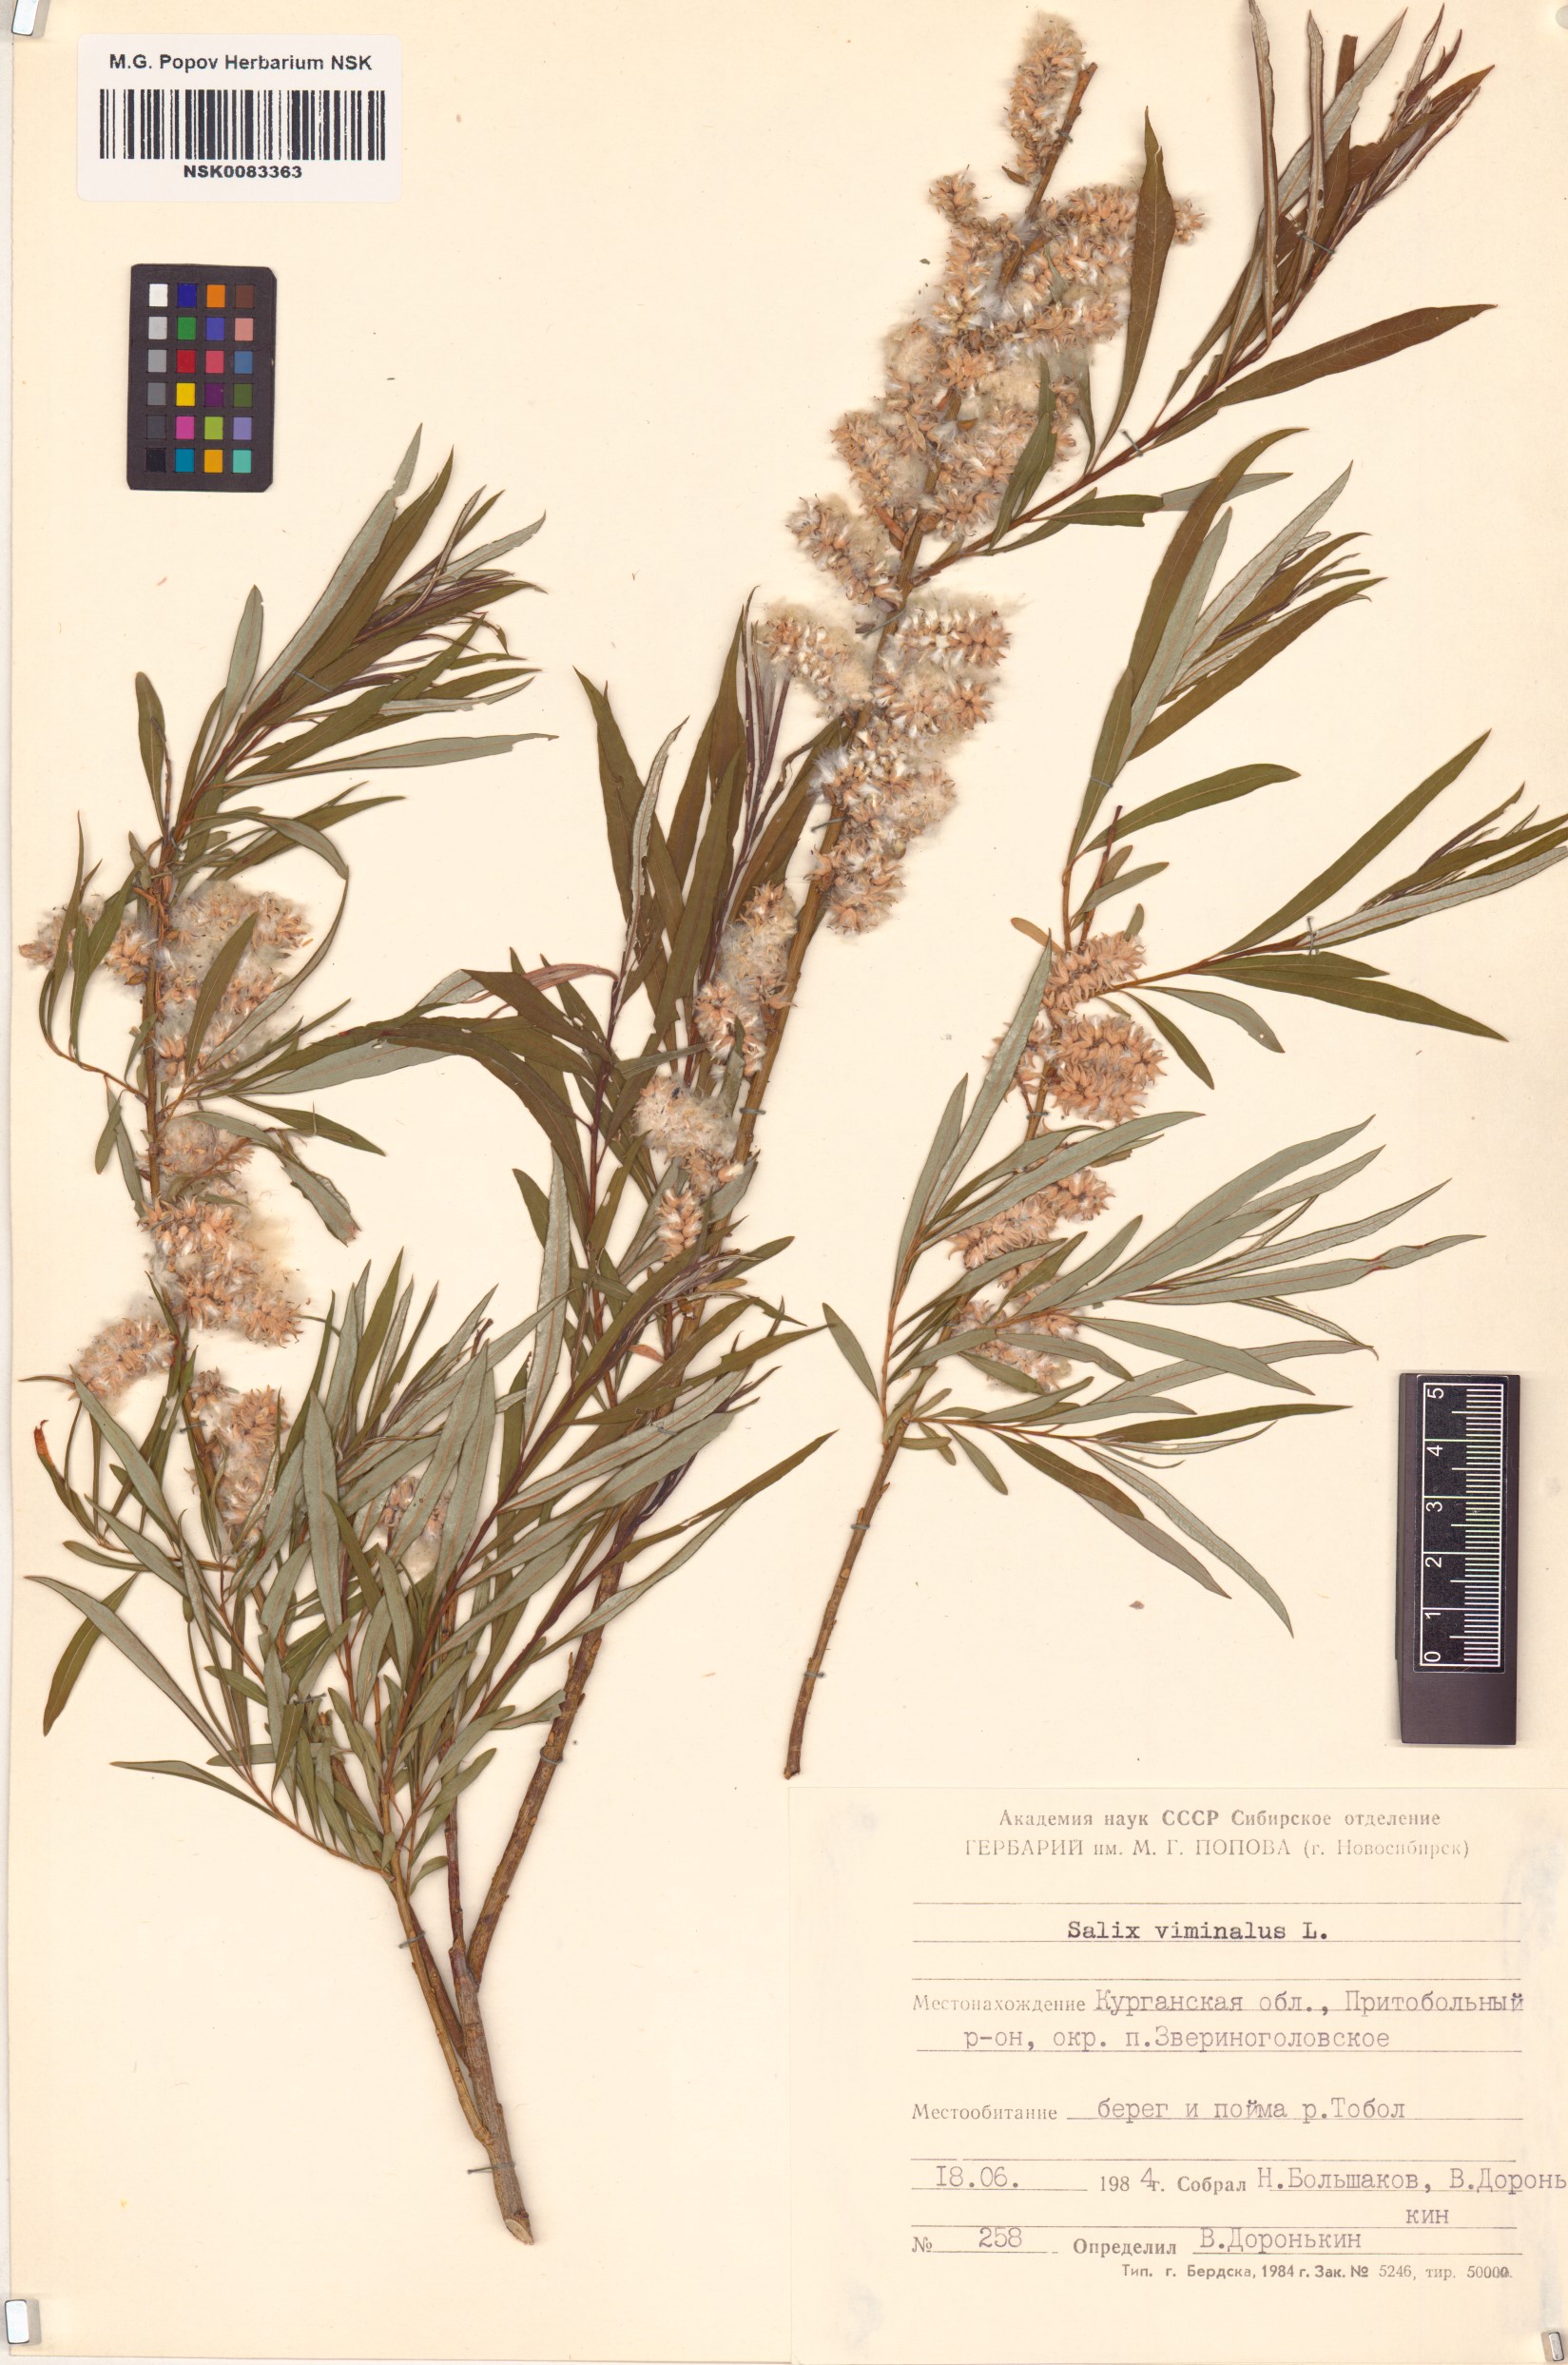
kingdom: Plantae
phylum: Tracheophyta
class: Magnoliopsida
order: Malpighiales
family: Salicaceae
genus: Salix
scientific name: Salix viminalis
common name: Osier
